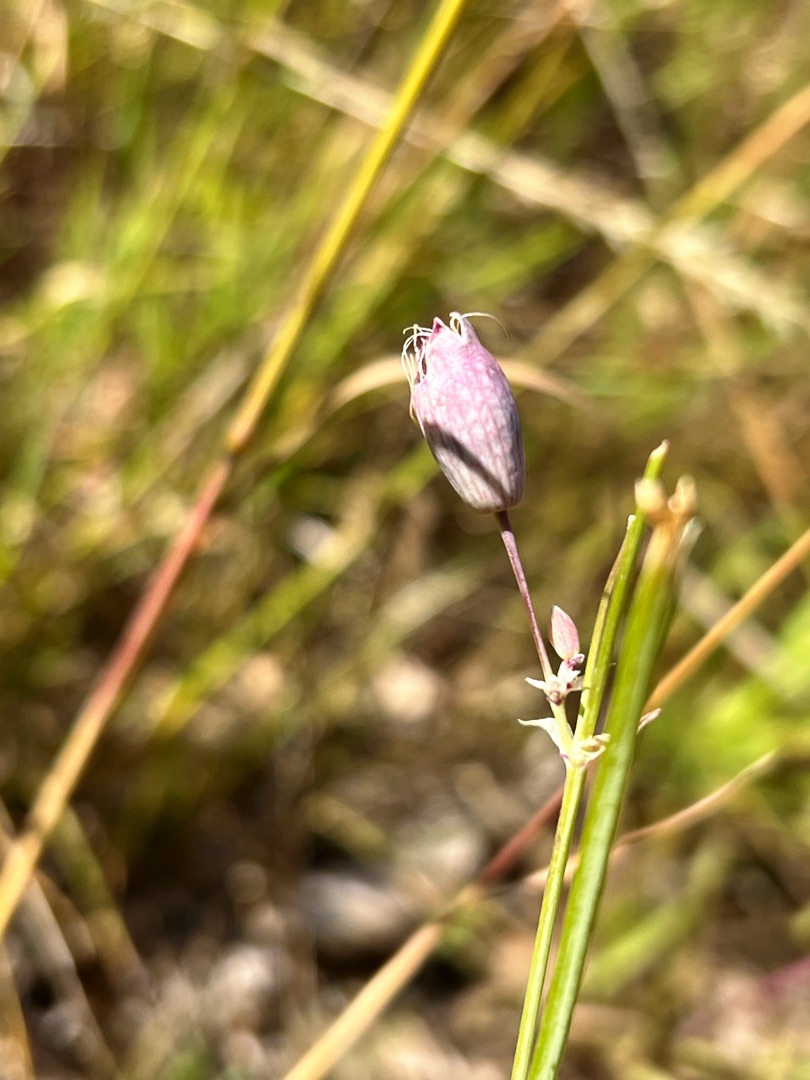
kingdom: Plantae
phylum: Tracheophyta
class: Magnoliopsida
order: Caryophyllales
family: Caryophyllaceae
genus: Silene
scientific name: Silene vulgaris
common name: Blæresmælde
